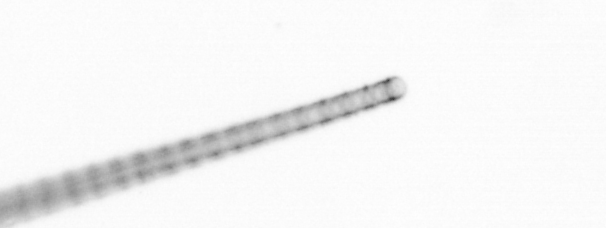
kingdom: Chromista
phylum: Ochrophyta
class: Bacillariophyceae
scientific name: Bacillariophyceae
